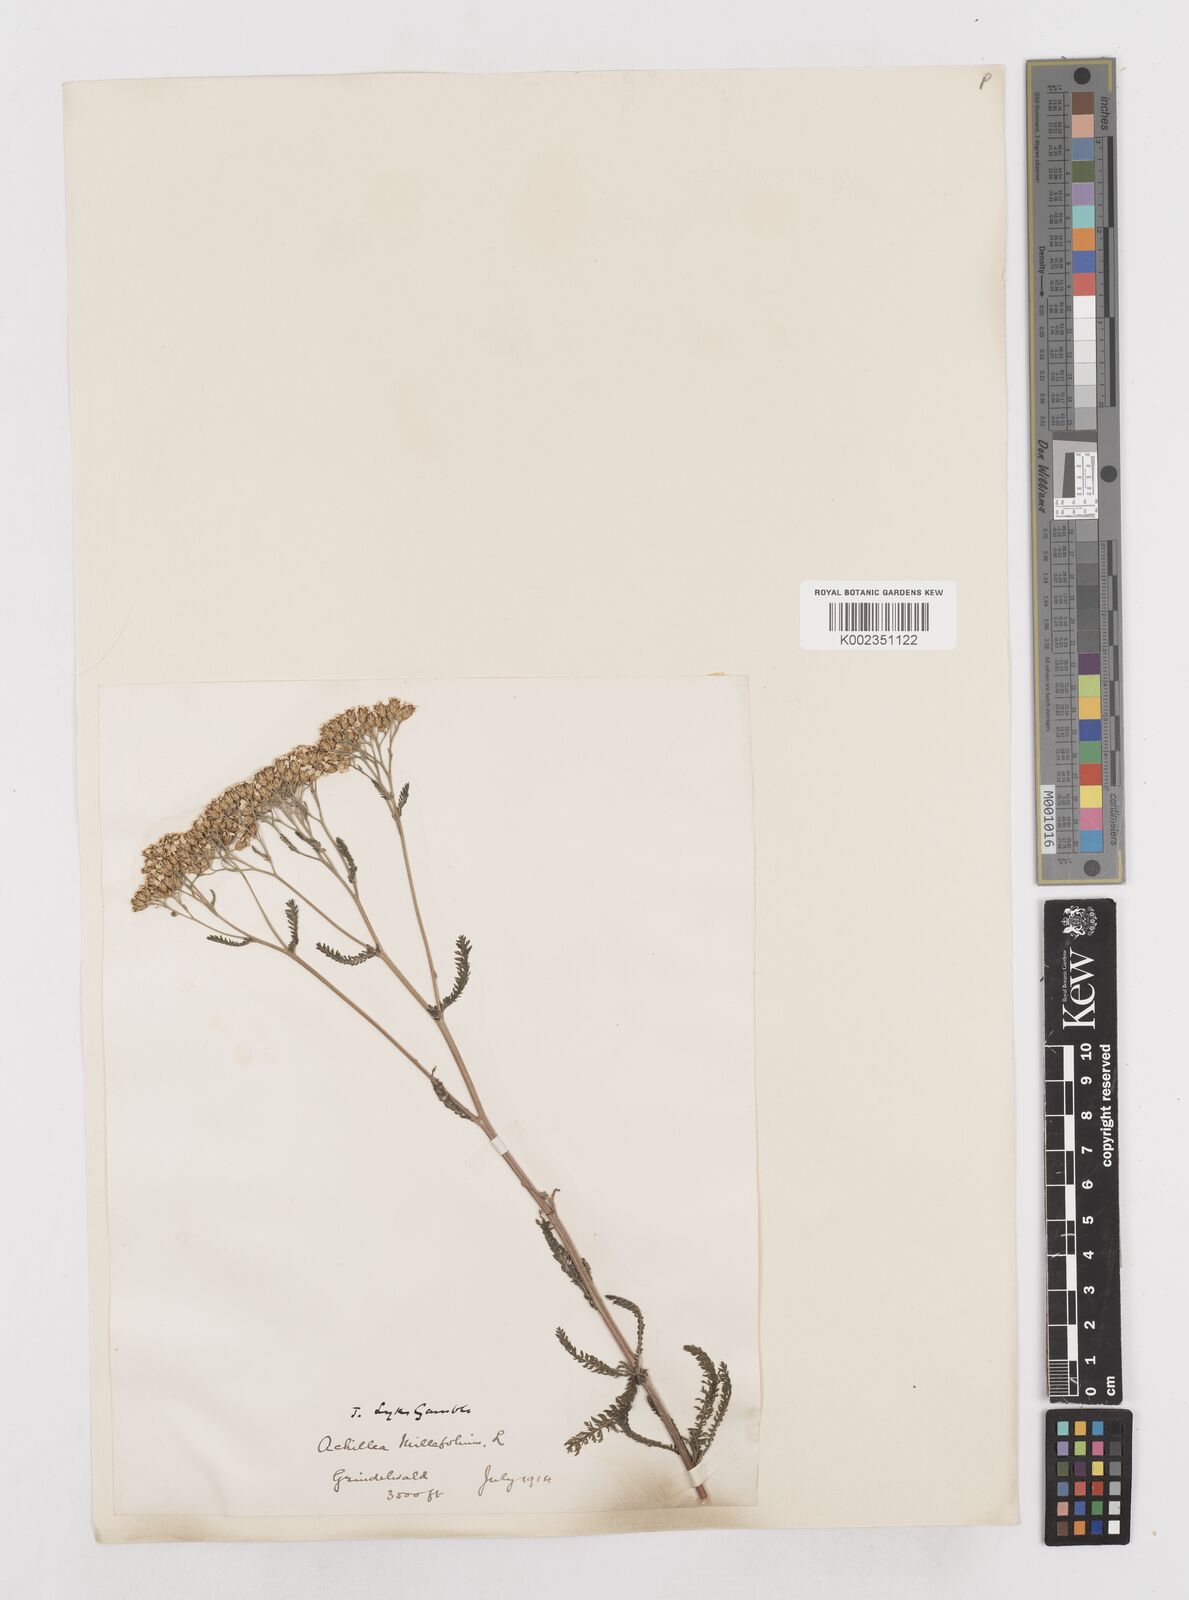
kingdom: Plantae
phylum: Tracheophyta
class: Magnoliopsida
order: Asterales
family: Asteraceae
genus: Achillea
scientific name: Achillea millefolium
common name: Yarrow
